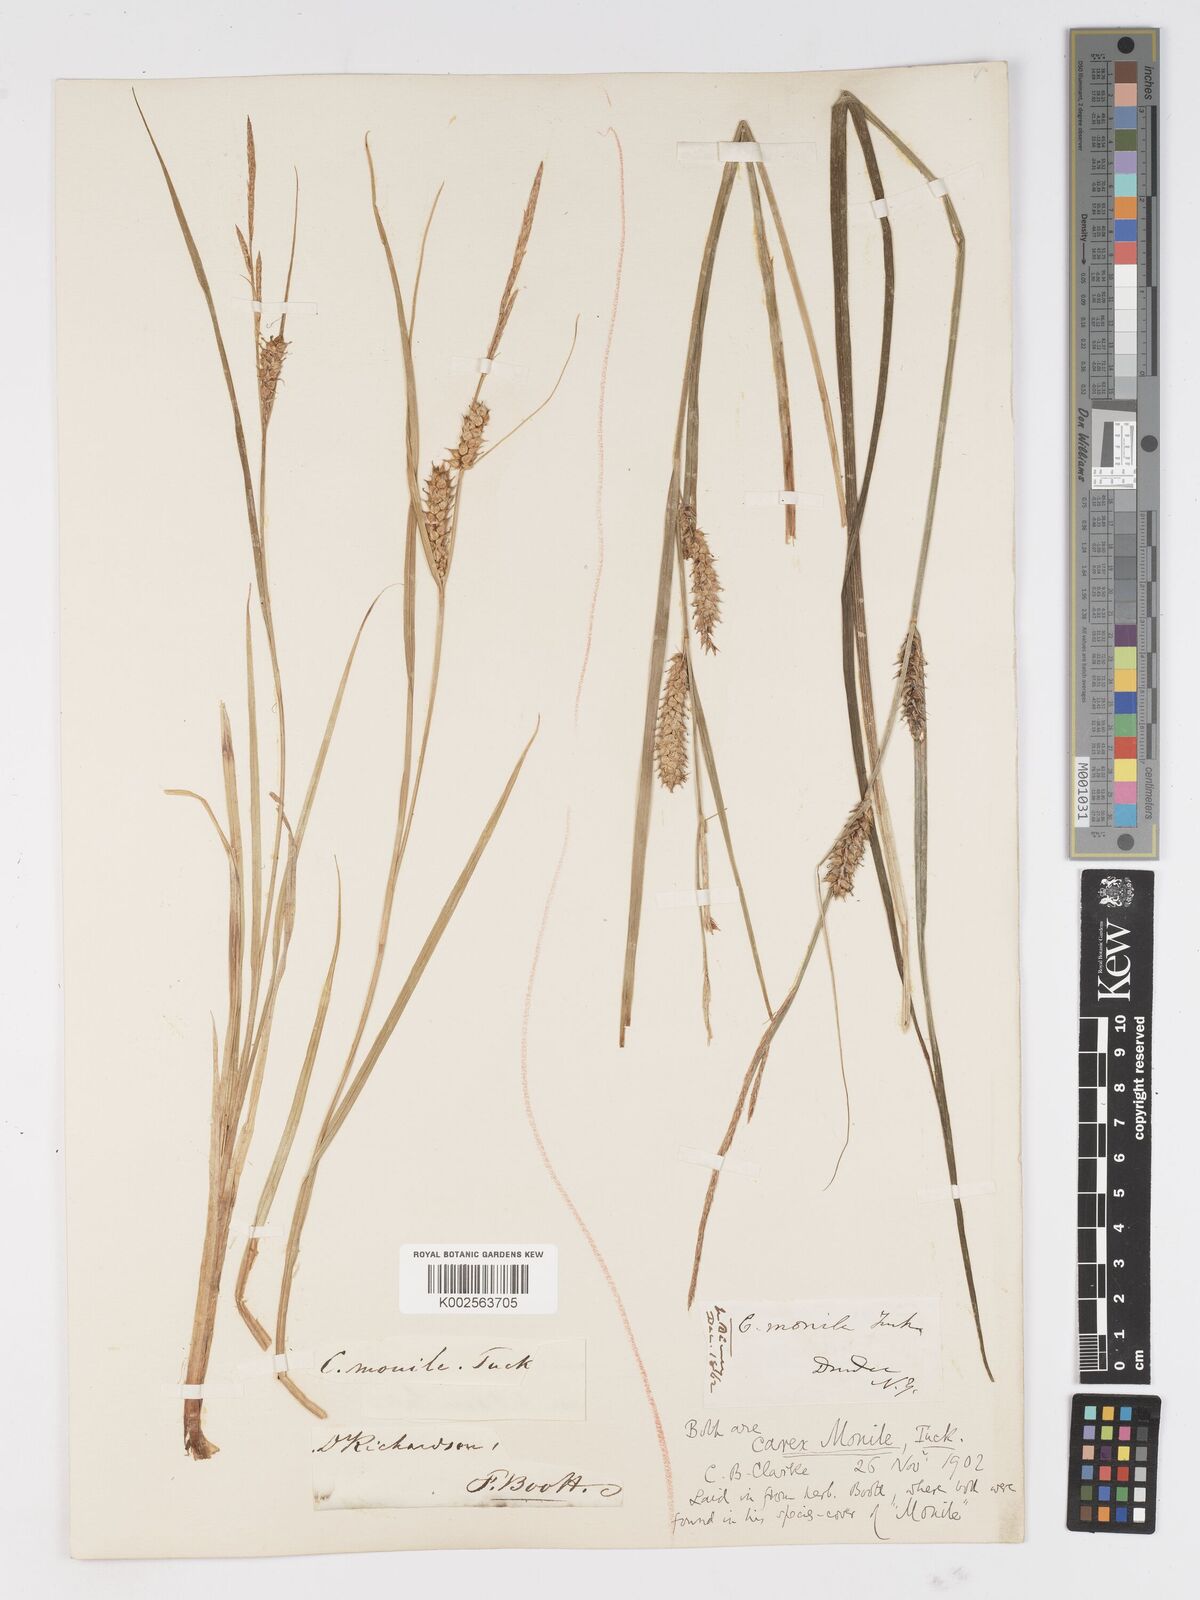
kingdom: Plantae
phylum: Tracheophyta
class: Liliopsida
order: Poales
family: Cyperaceae
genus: Carex
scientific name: Carex vesicaria
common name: Bladder-sedge
